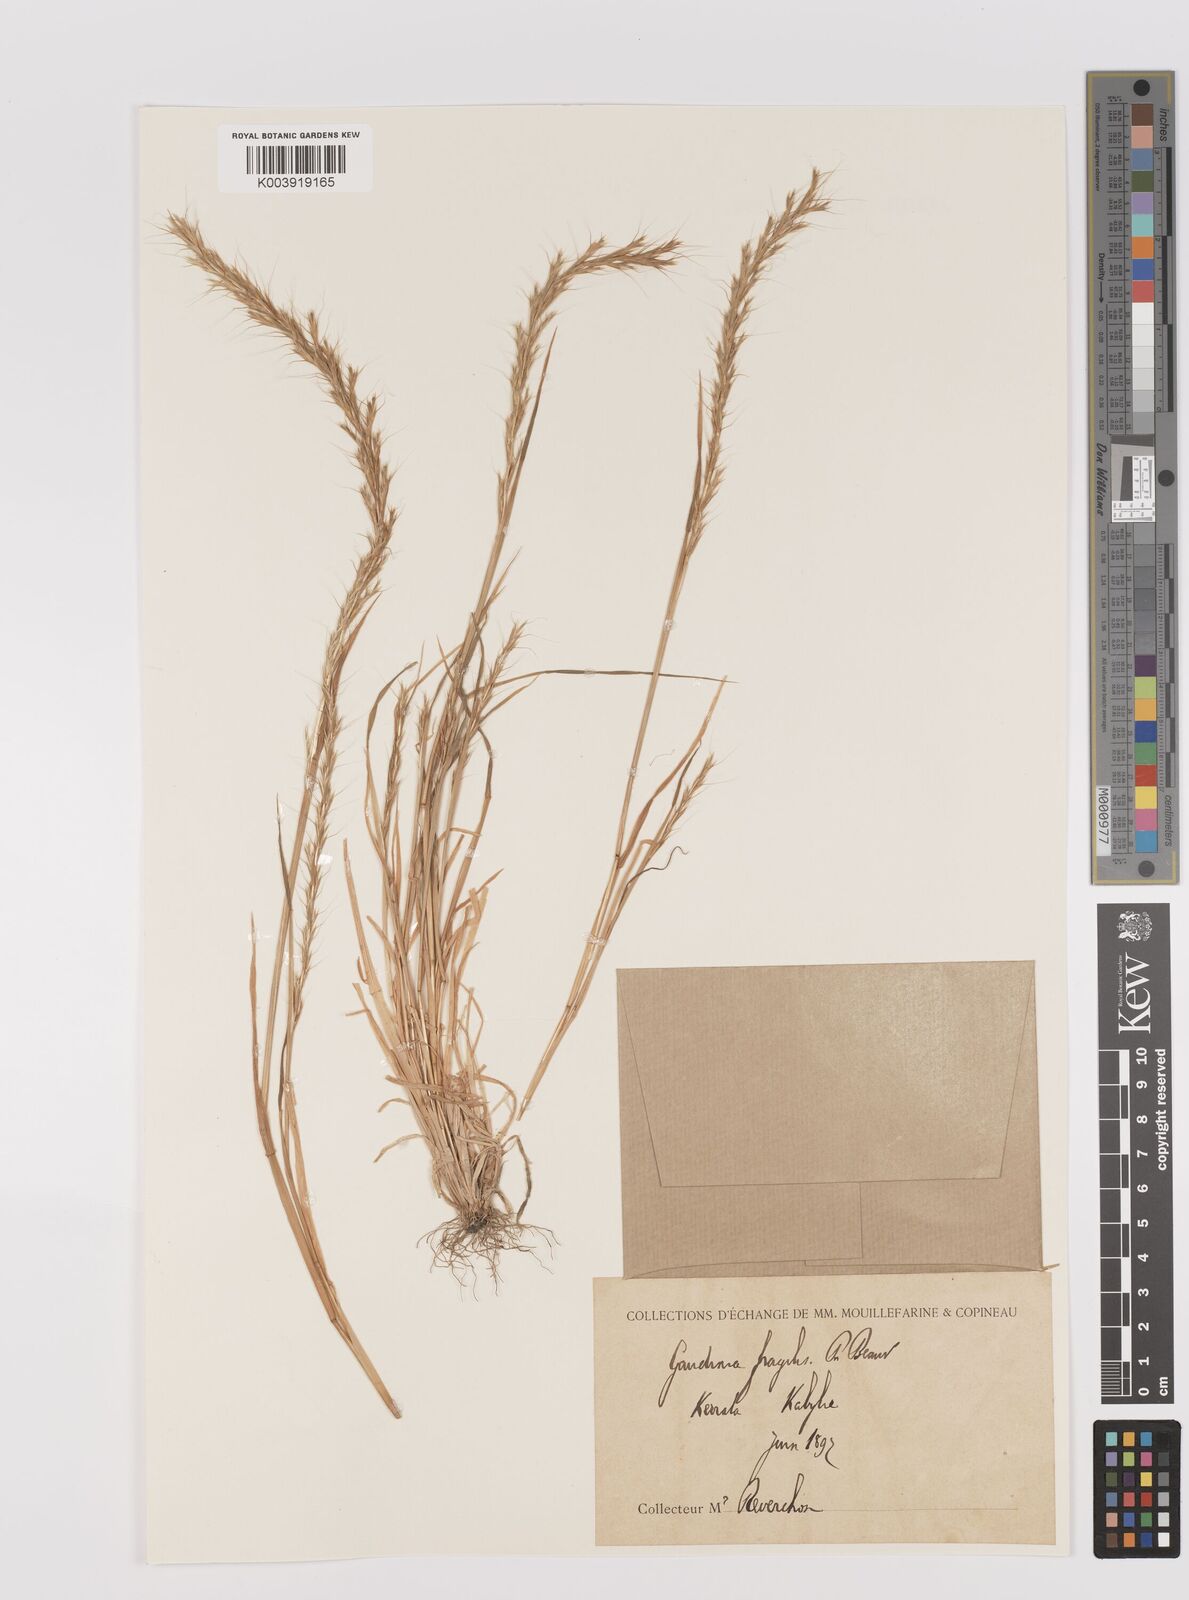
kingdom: Plantae
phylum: Tracheophyta
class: Liliopsida
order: Poales
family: Poaceae
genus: Gaudinia
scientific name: Gaudinia fragilis
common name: French oat-grass
